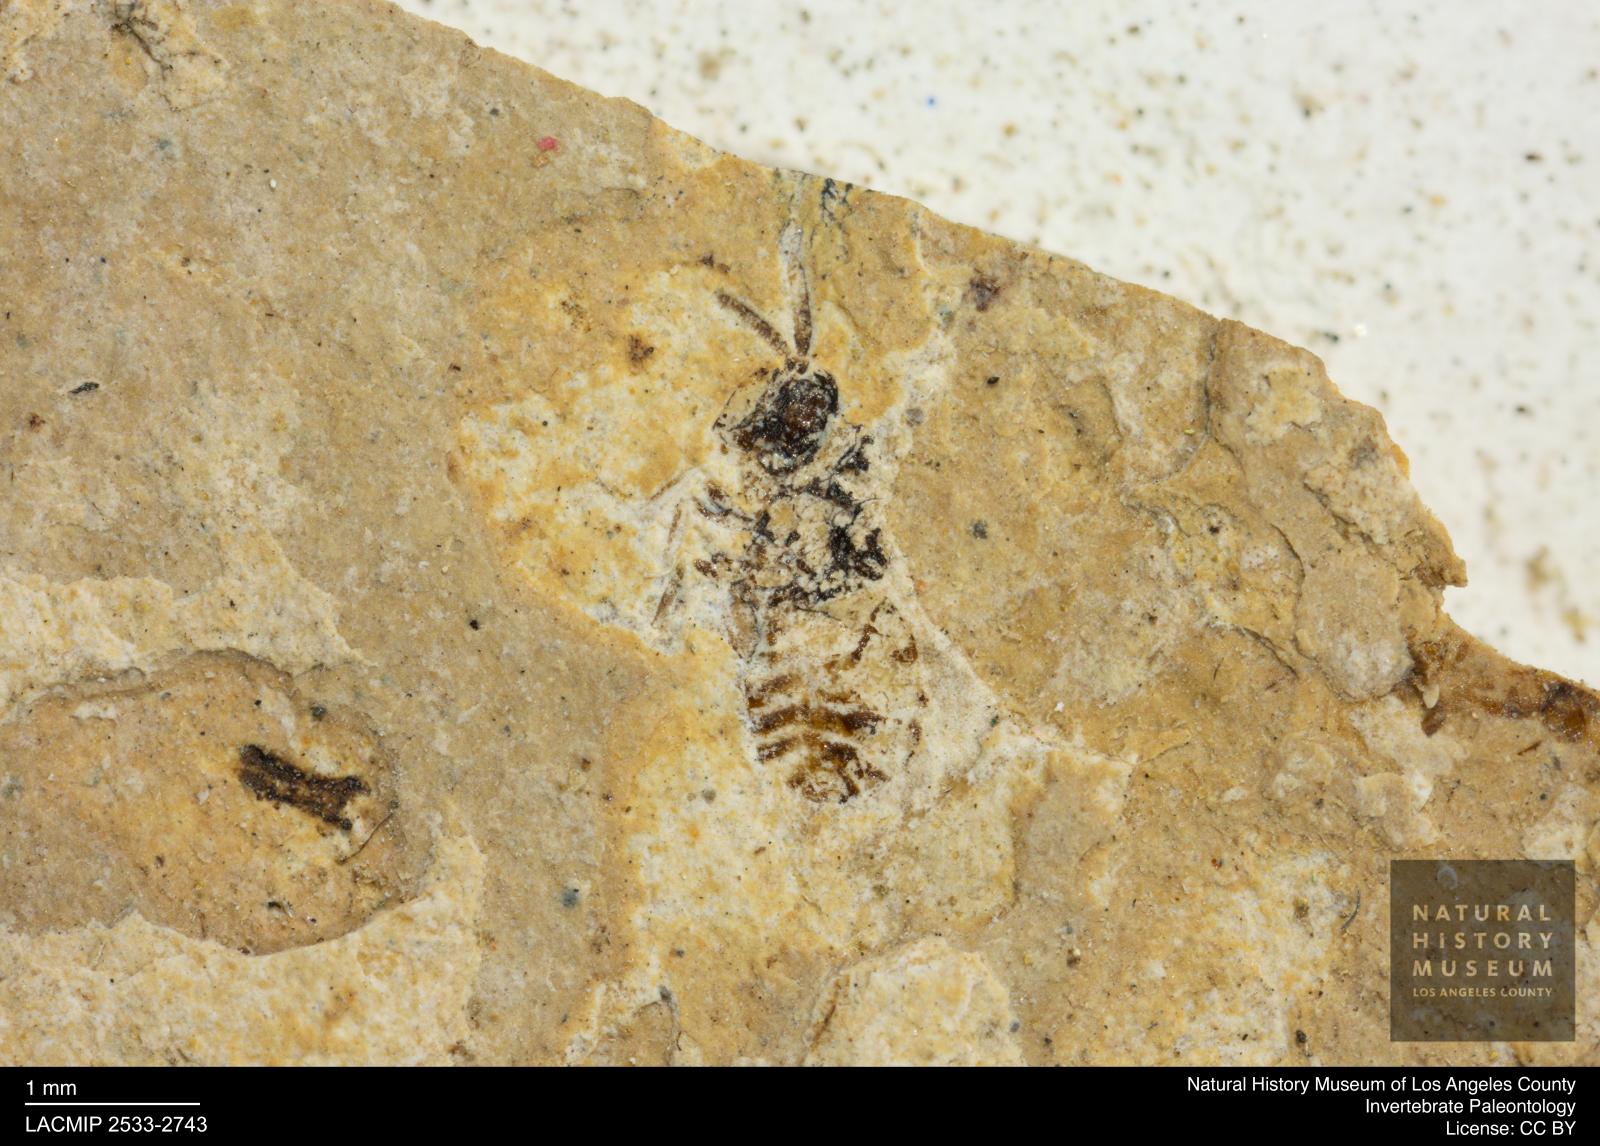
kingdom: Animalia
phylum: Arthropoda
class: Insecta
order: Hymenoptera
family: Pteromalidae
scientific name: Pteromalidae
